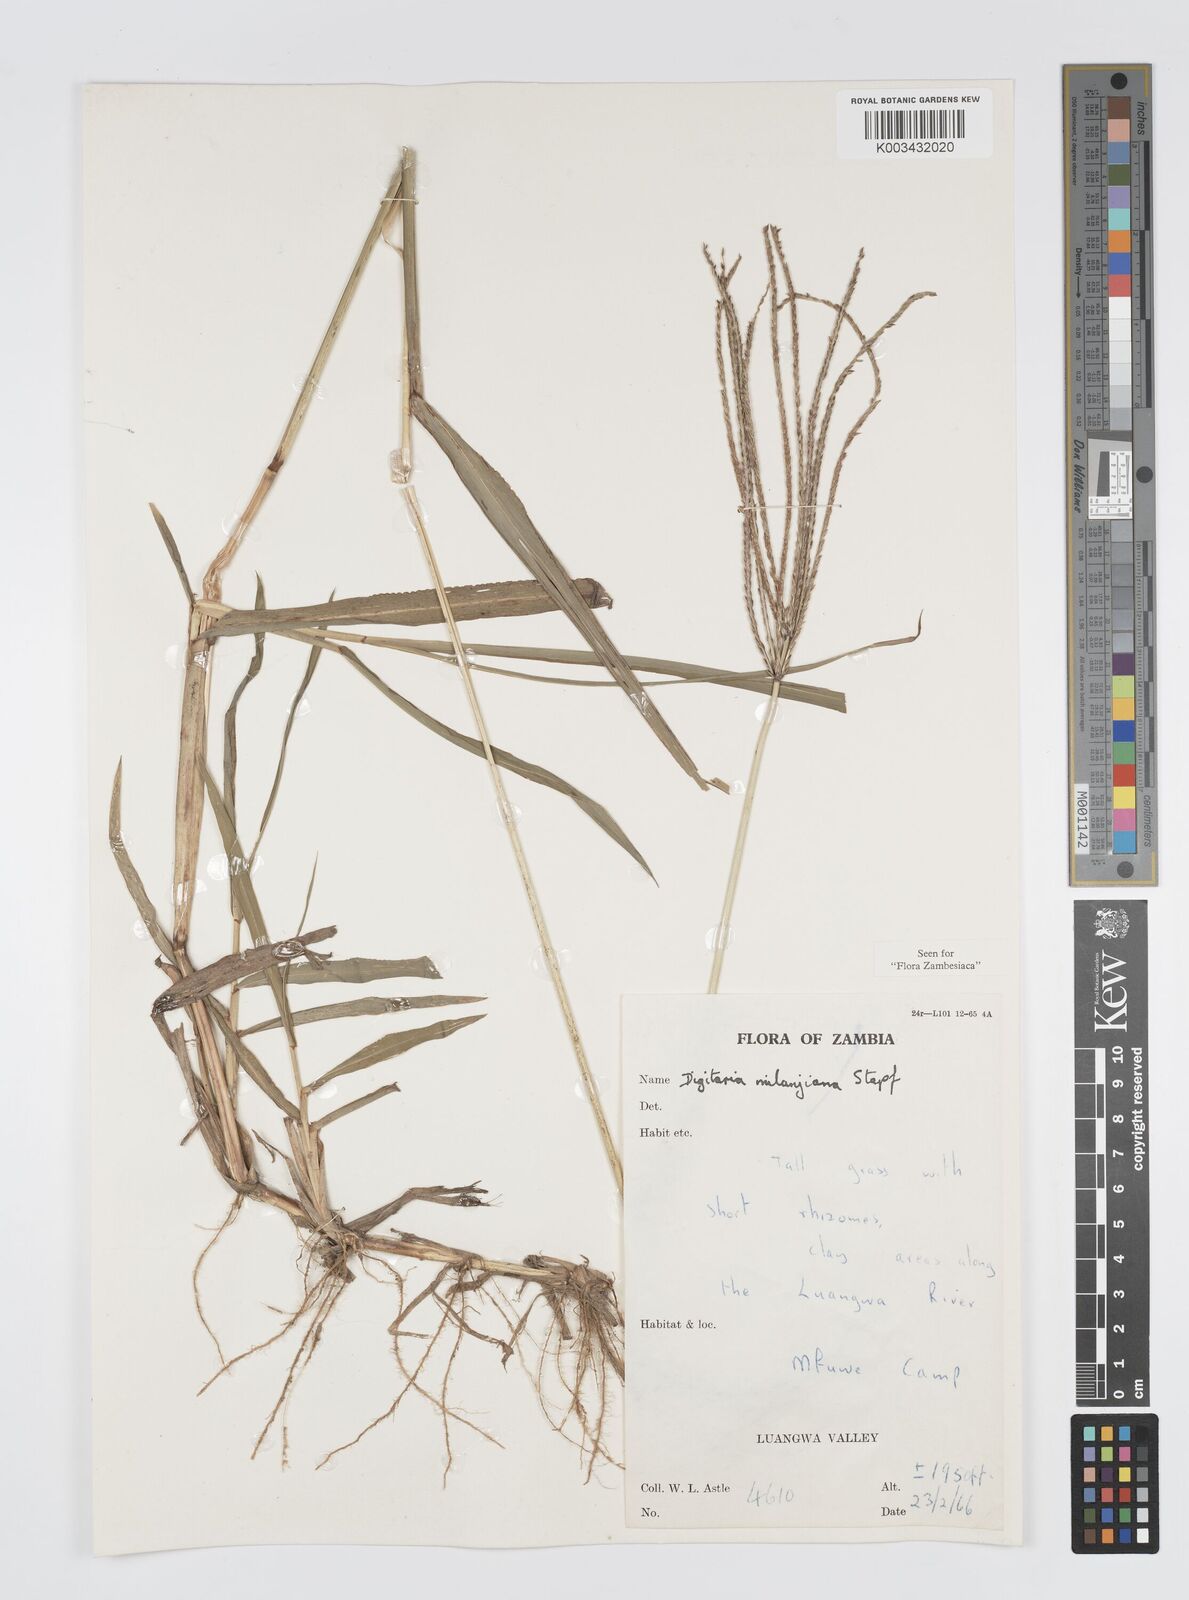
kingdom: Plantae
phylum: Tracheophyta
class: Liliopsida
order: Poales
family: Poaceae
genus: Digitaria
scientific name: Digitaria milanjiana
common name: Madagascar crabgrass
